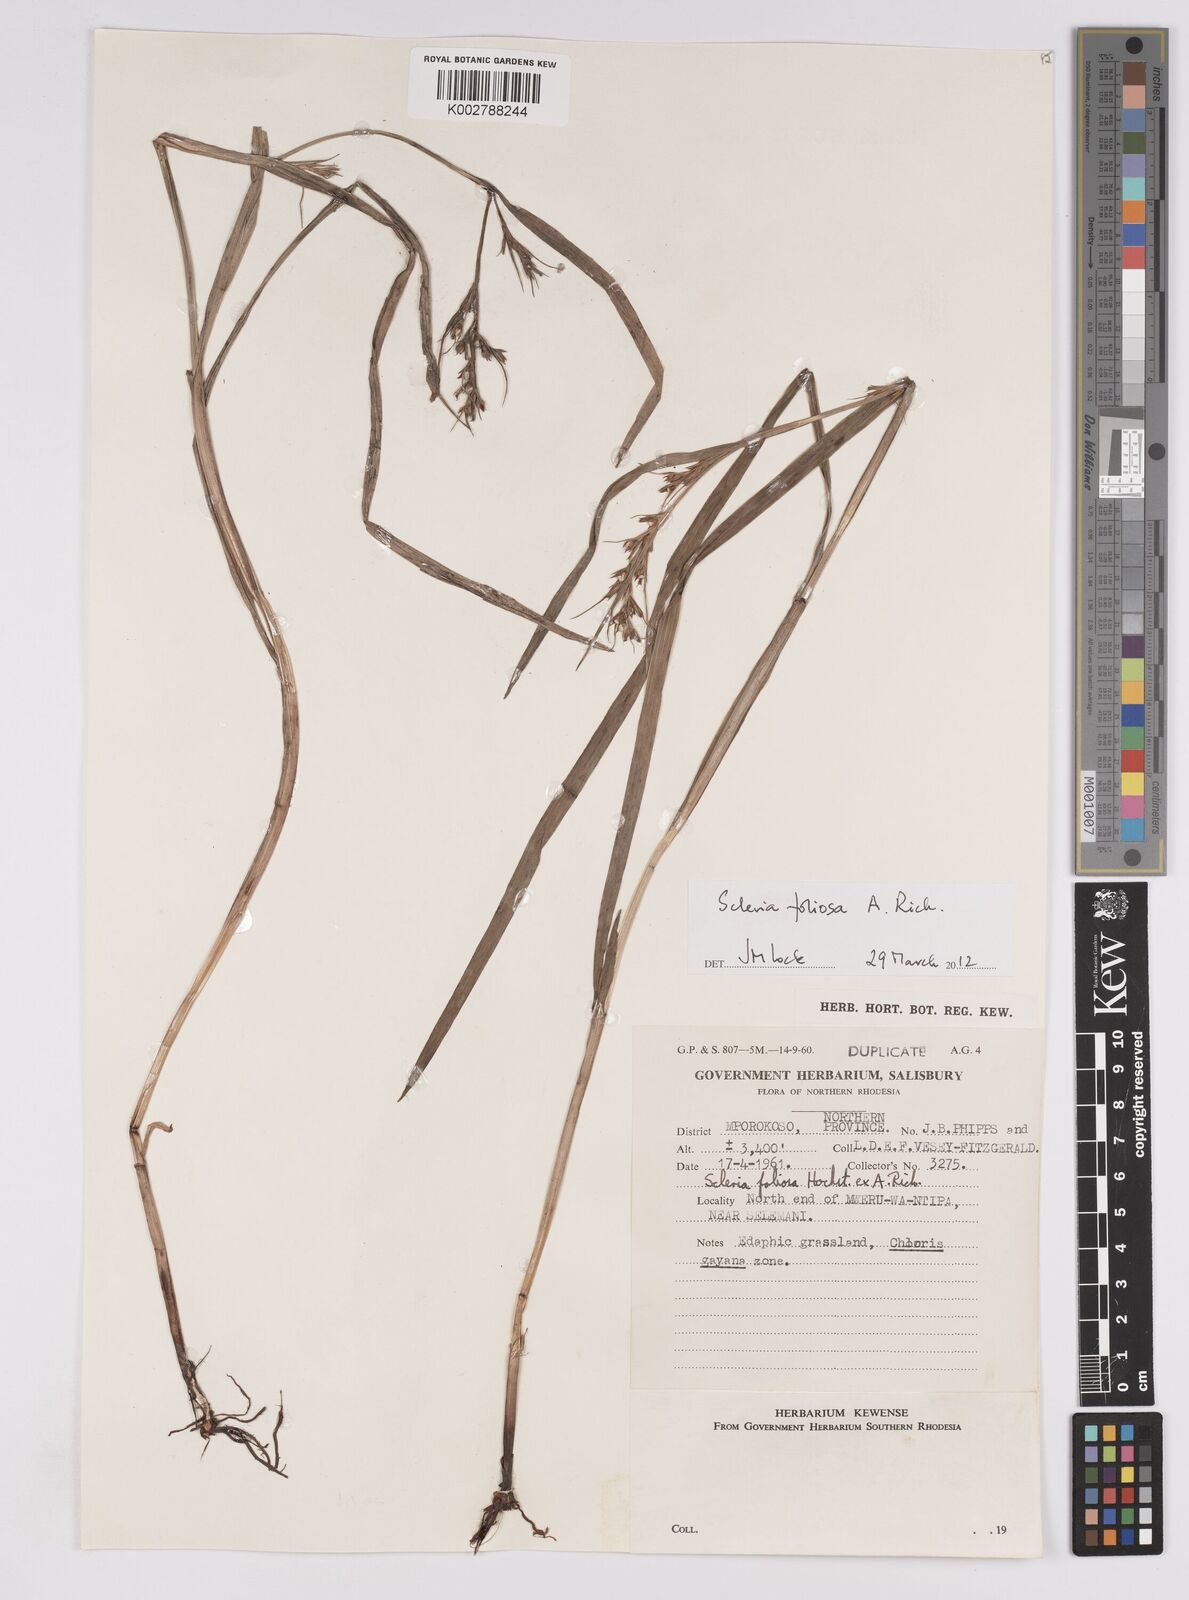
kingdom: Plantae
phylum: Tracheophyta
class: Liliopsida
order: Poales
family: Cyperaceae
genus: Scleria
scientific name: Scleria foliosa
